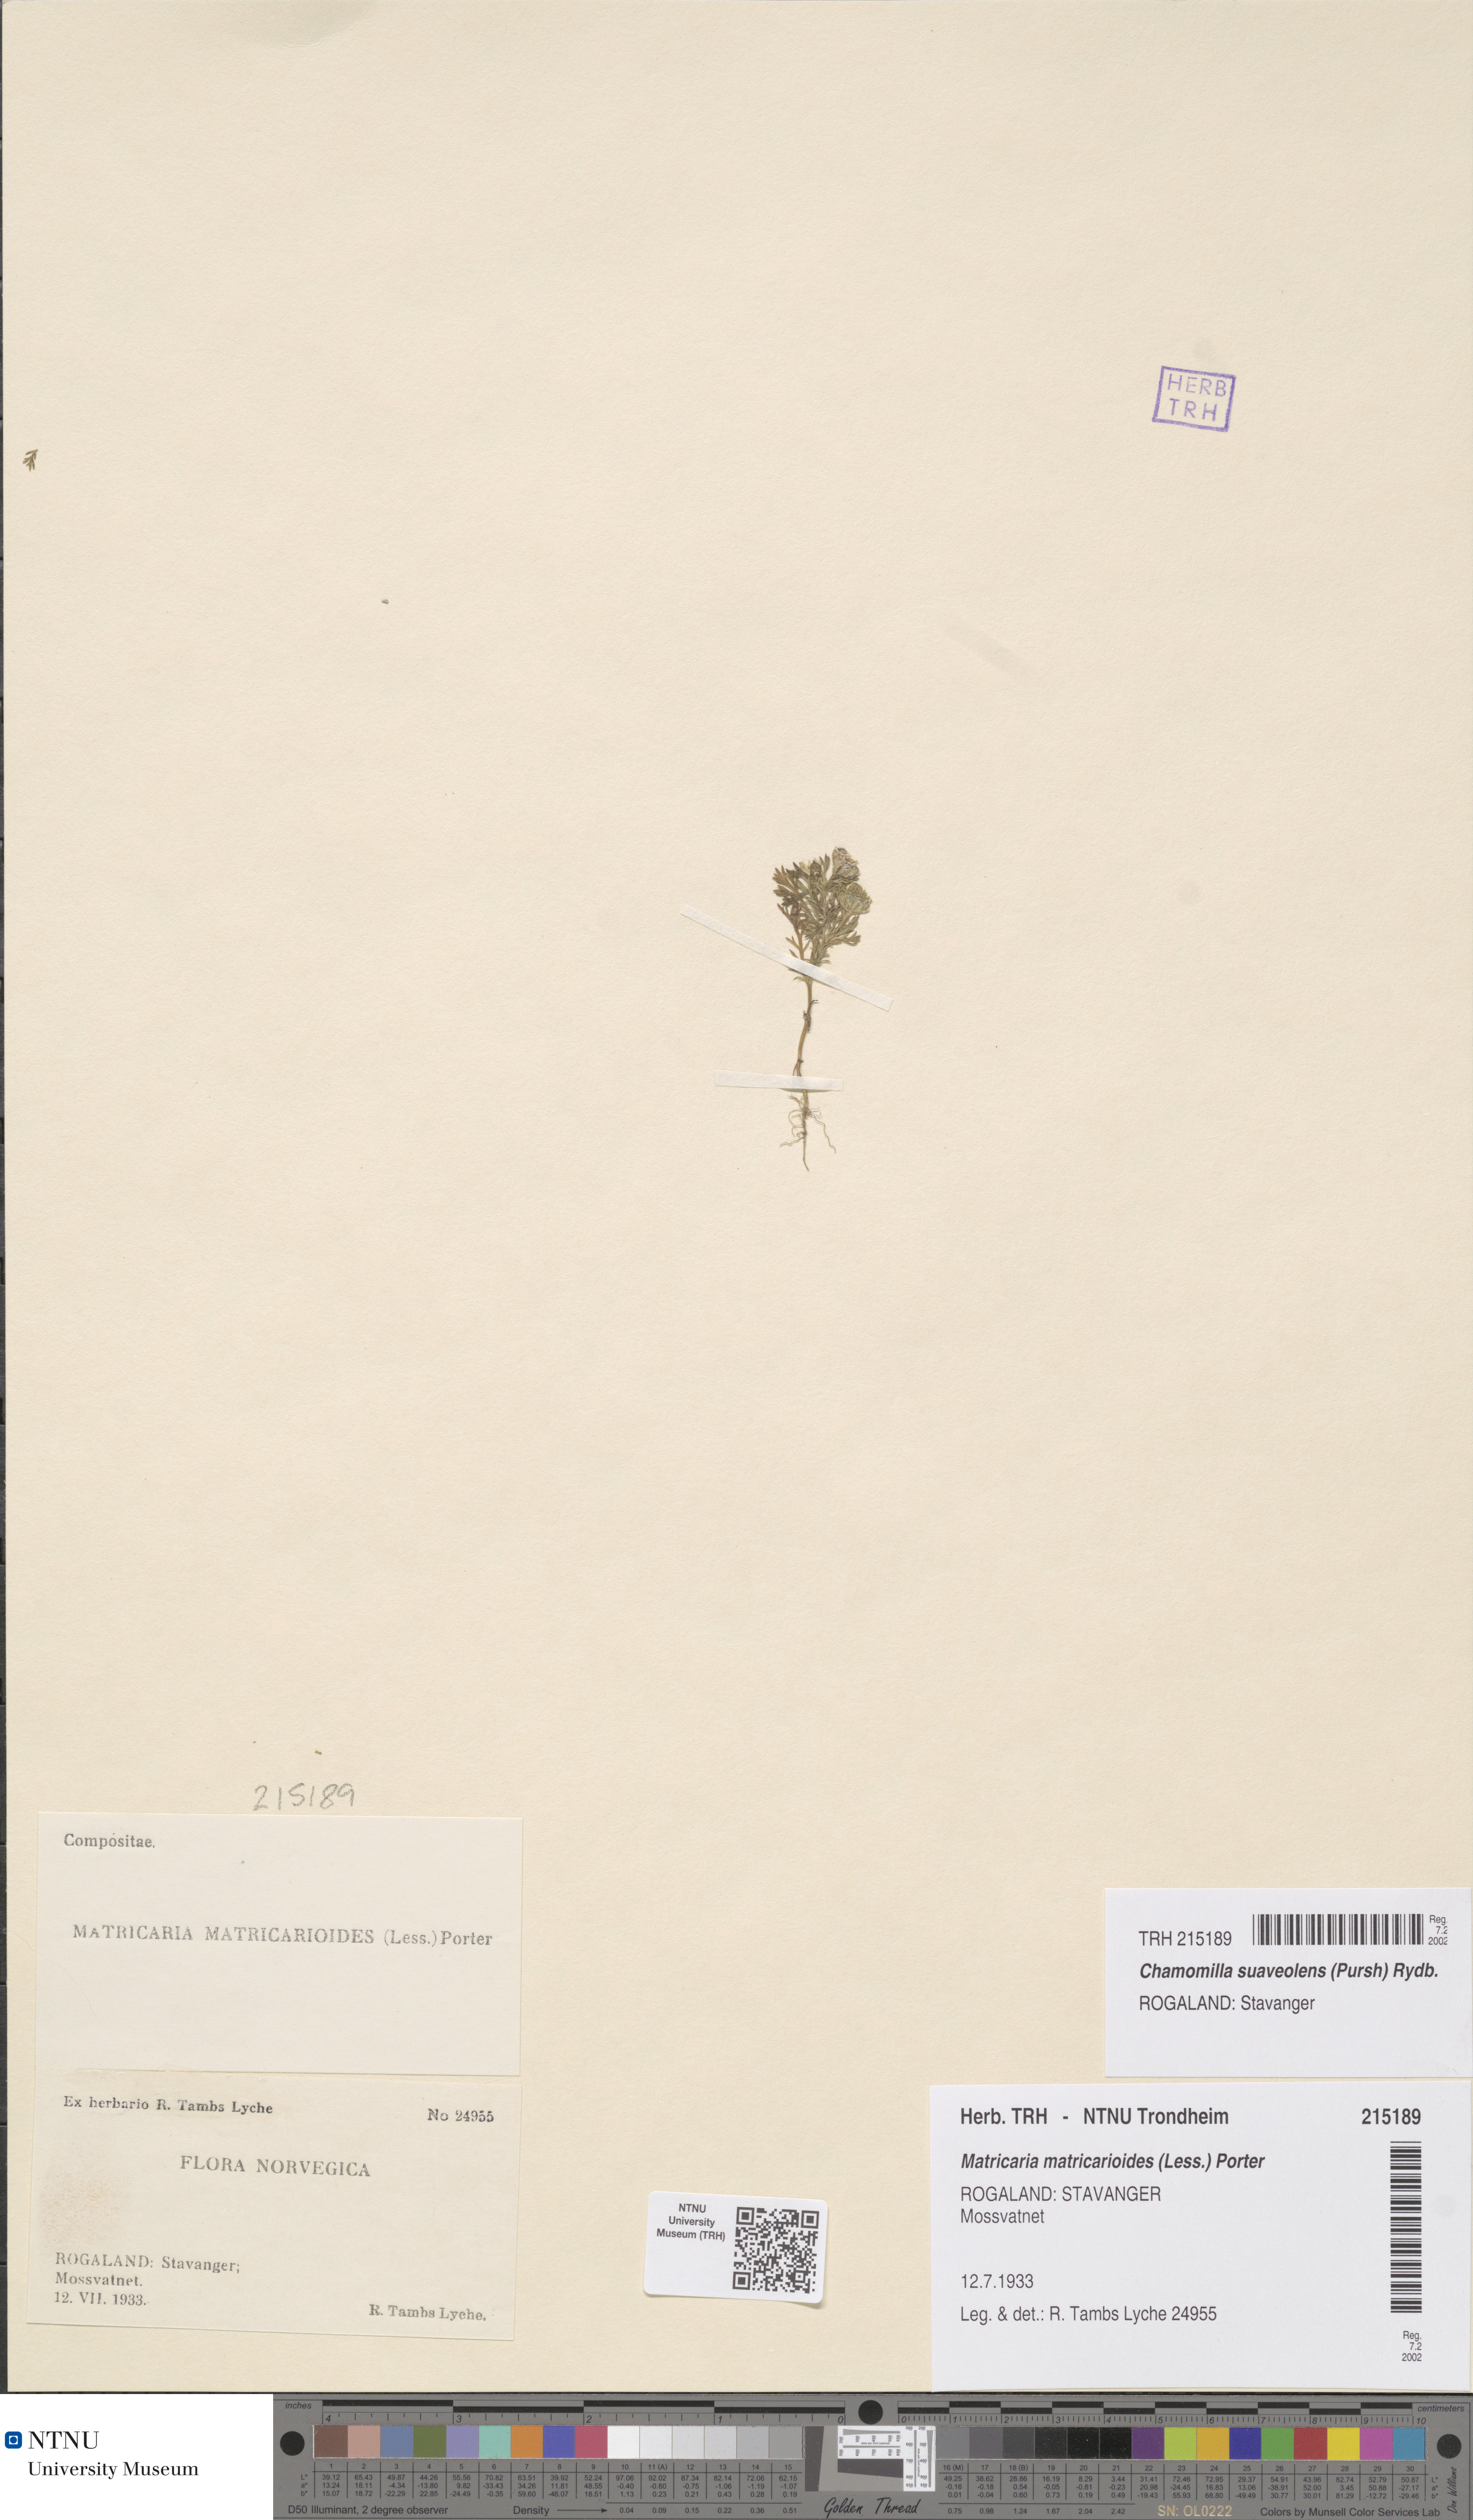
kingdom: Plantae
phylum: Tracheophyta
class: Magnoliopsida
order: Asterales
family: Asteraceae
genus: Matricaria
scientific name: Matricaria discoidea
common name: Disc mayweed
